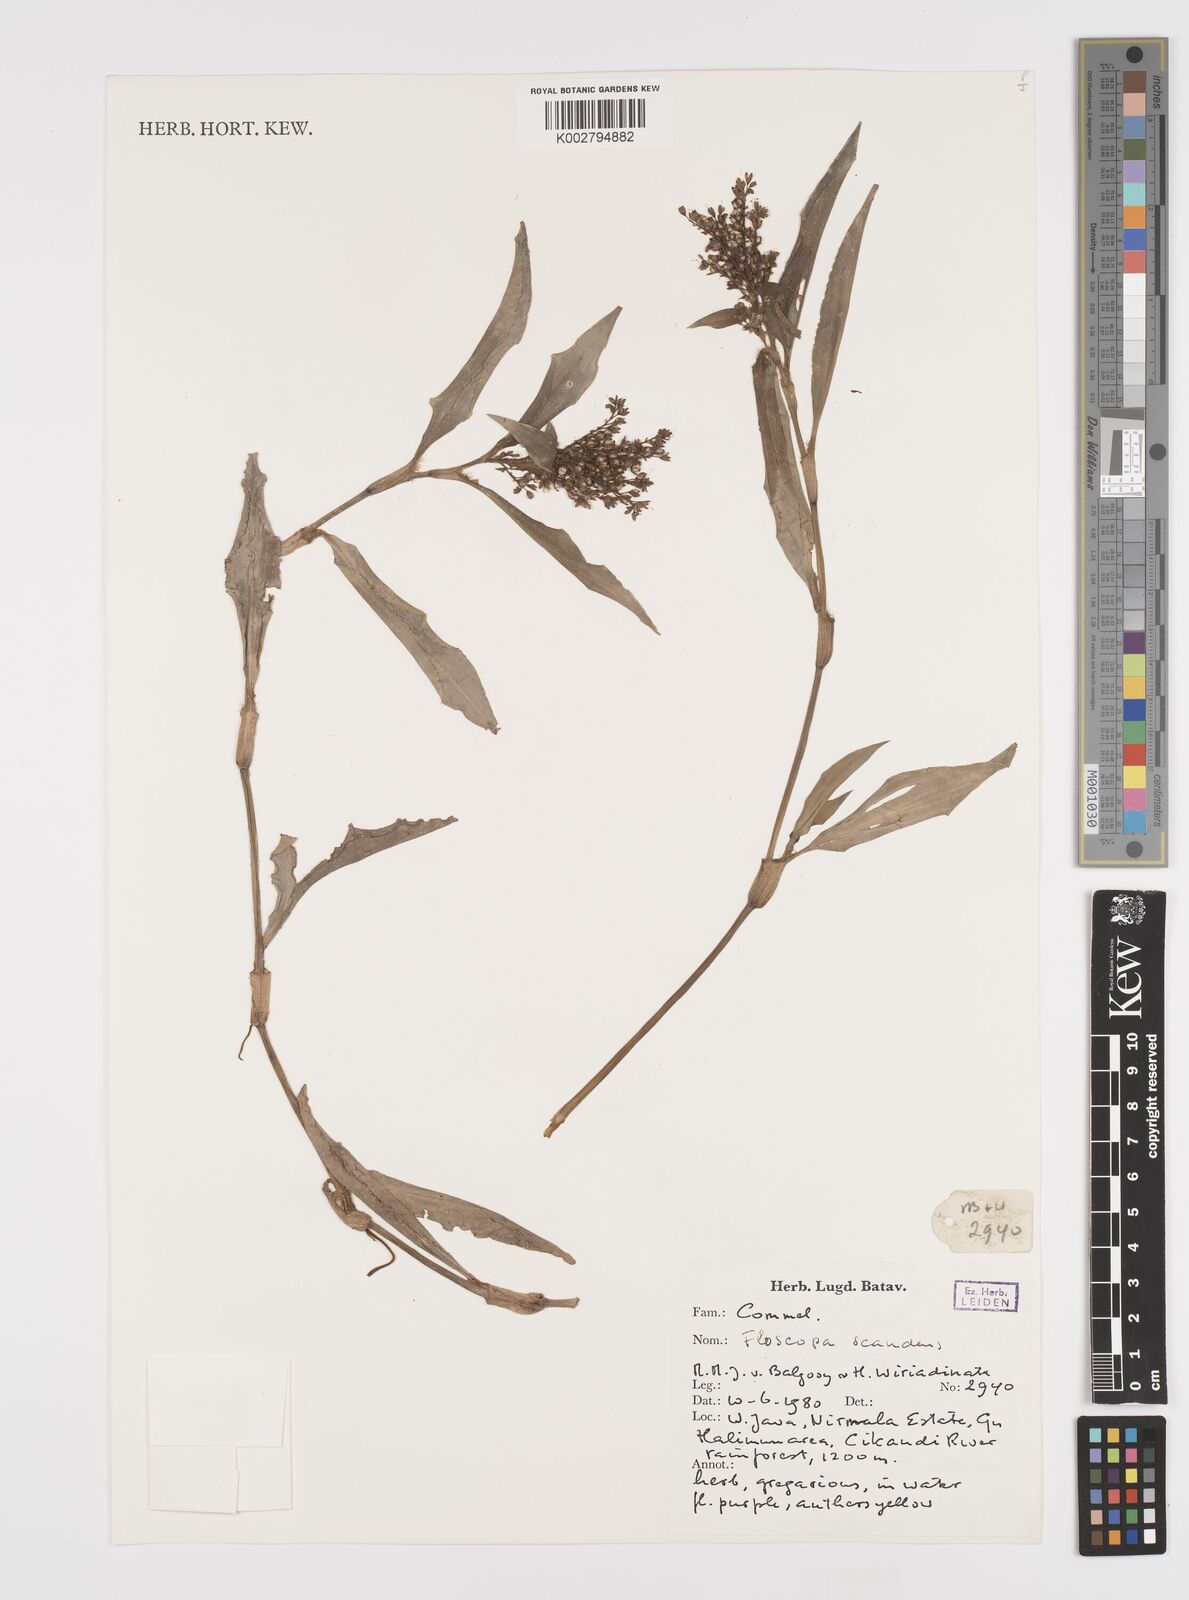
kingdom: Plantae
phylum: Tracheophyta
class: Liliopsida
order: Commelinales
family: Commelinaceae
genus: Floscopa
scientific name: Floscopa scandens
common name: Climbing flower cup
